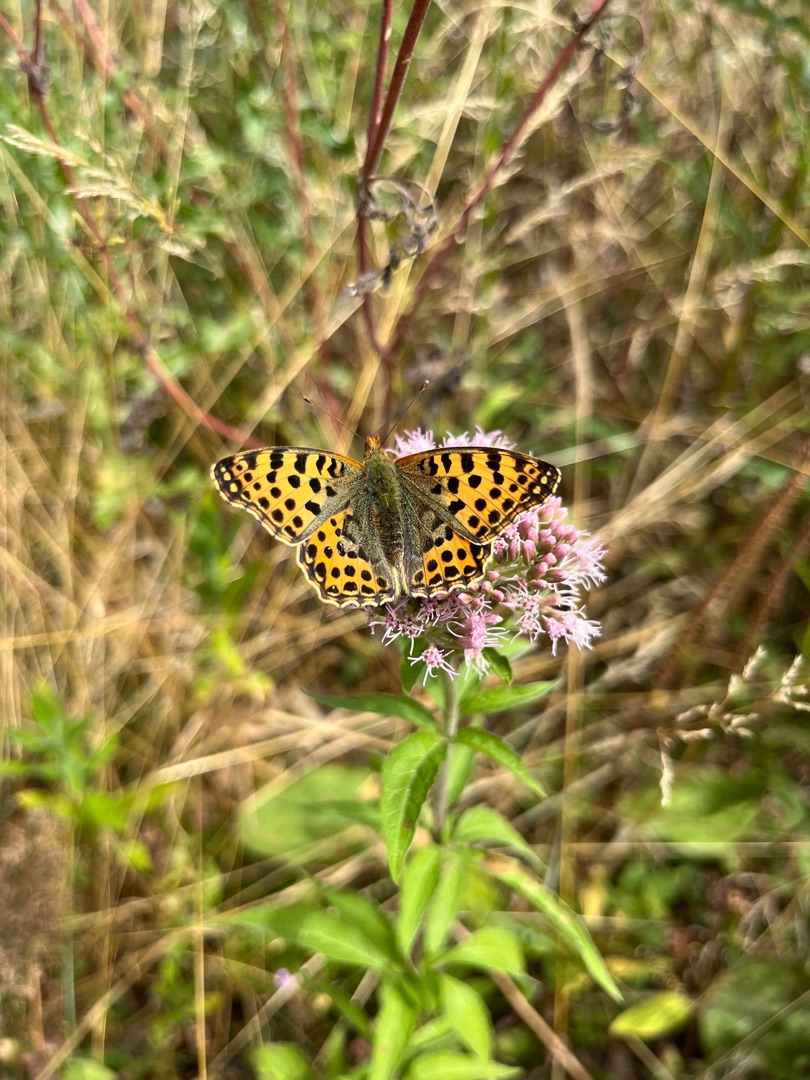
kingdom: Animalia
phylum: Arthropoda
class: Insecta
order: Lepidoptera
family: Nymphalidae
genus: Issoria
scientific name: Issoria lathonia
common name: Storplettet perlemorsommerfugl
